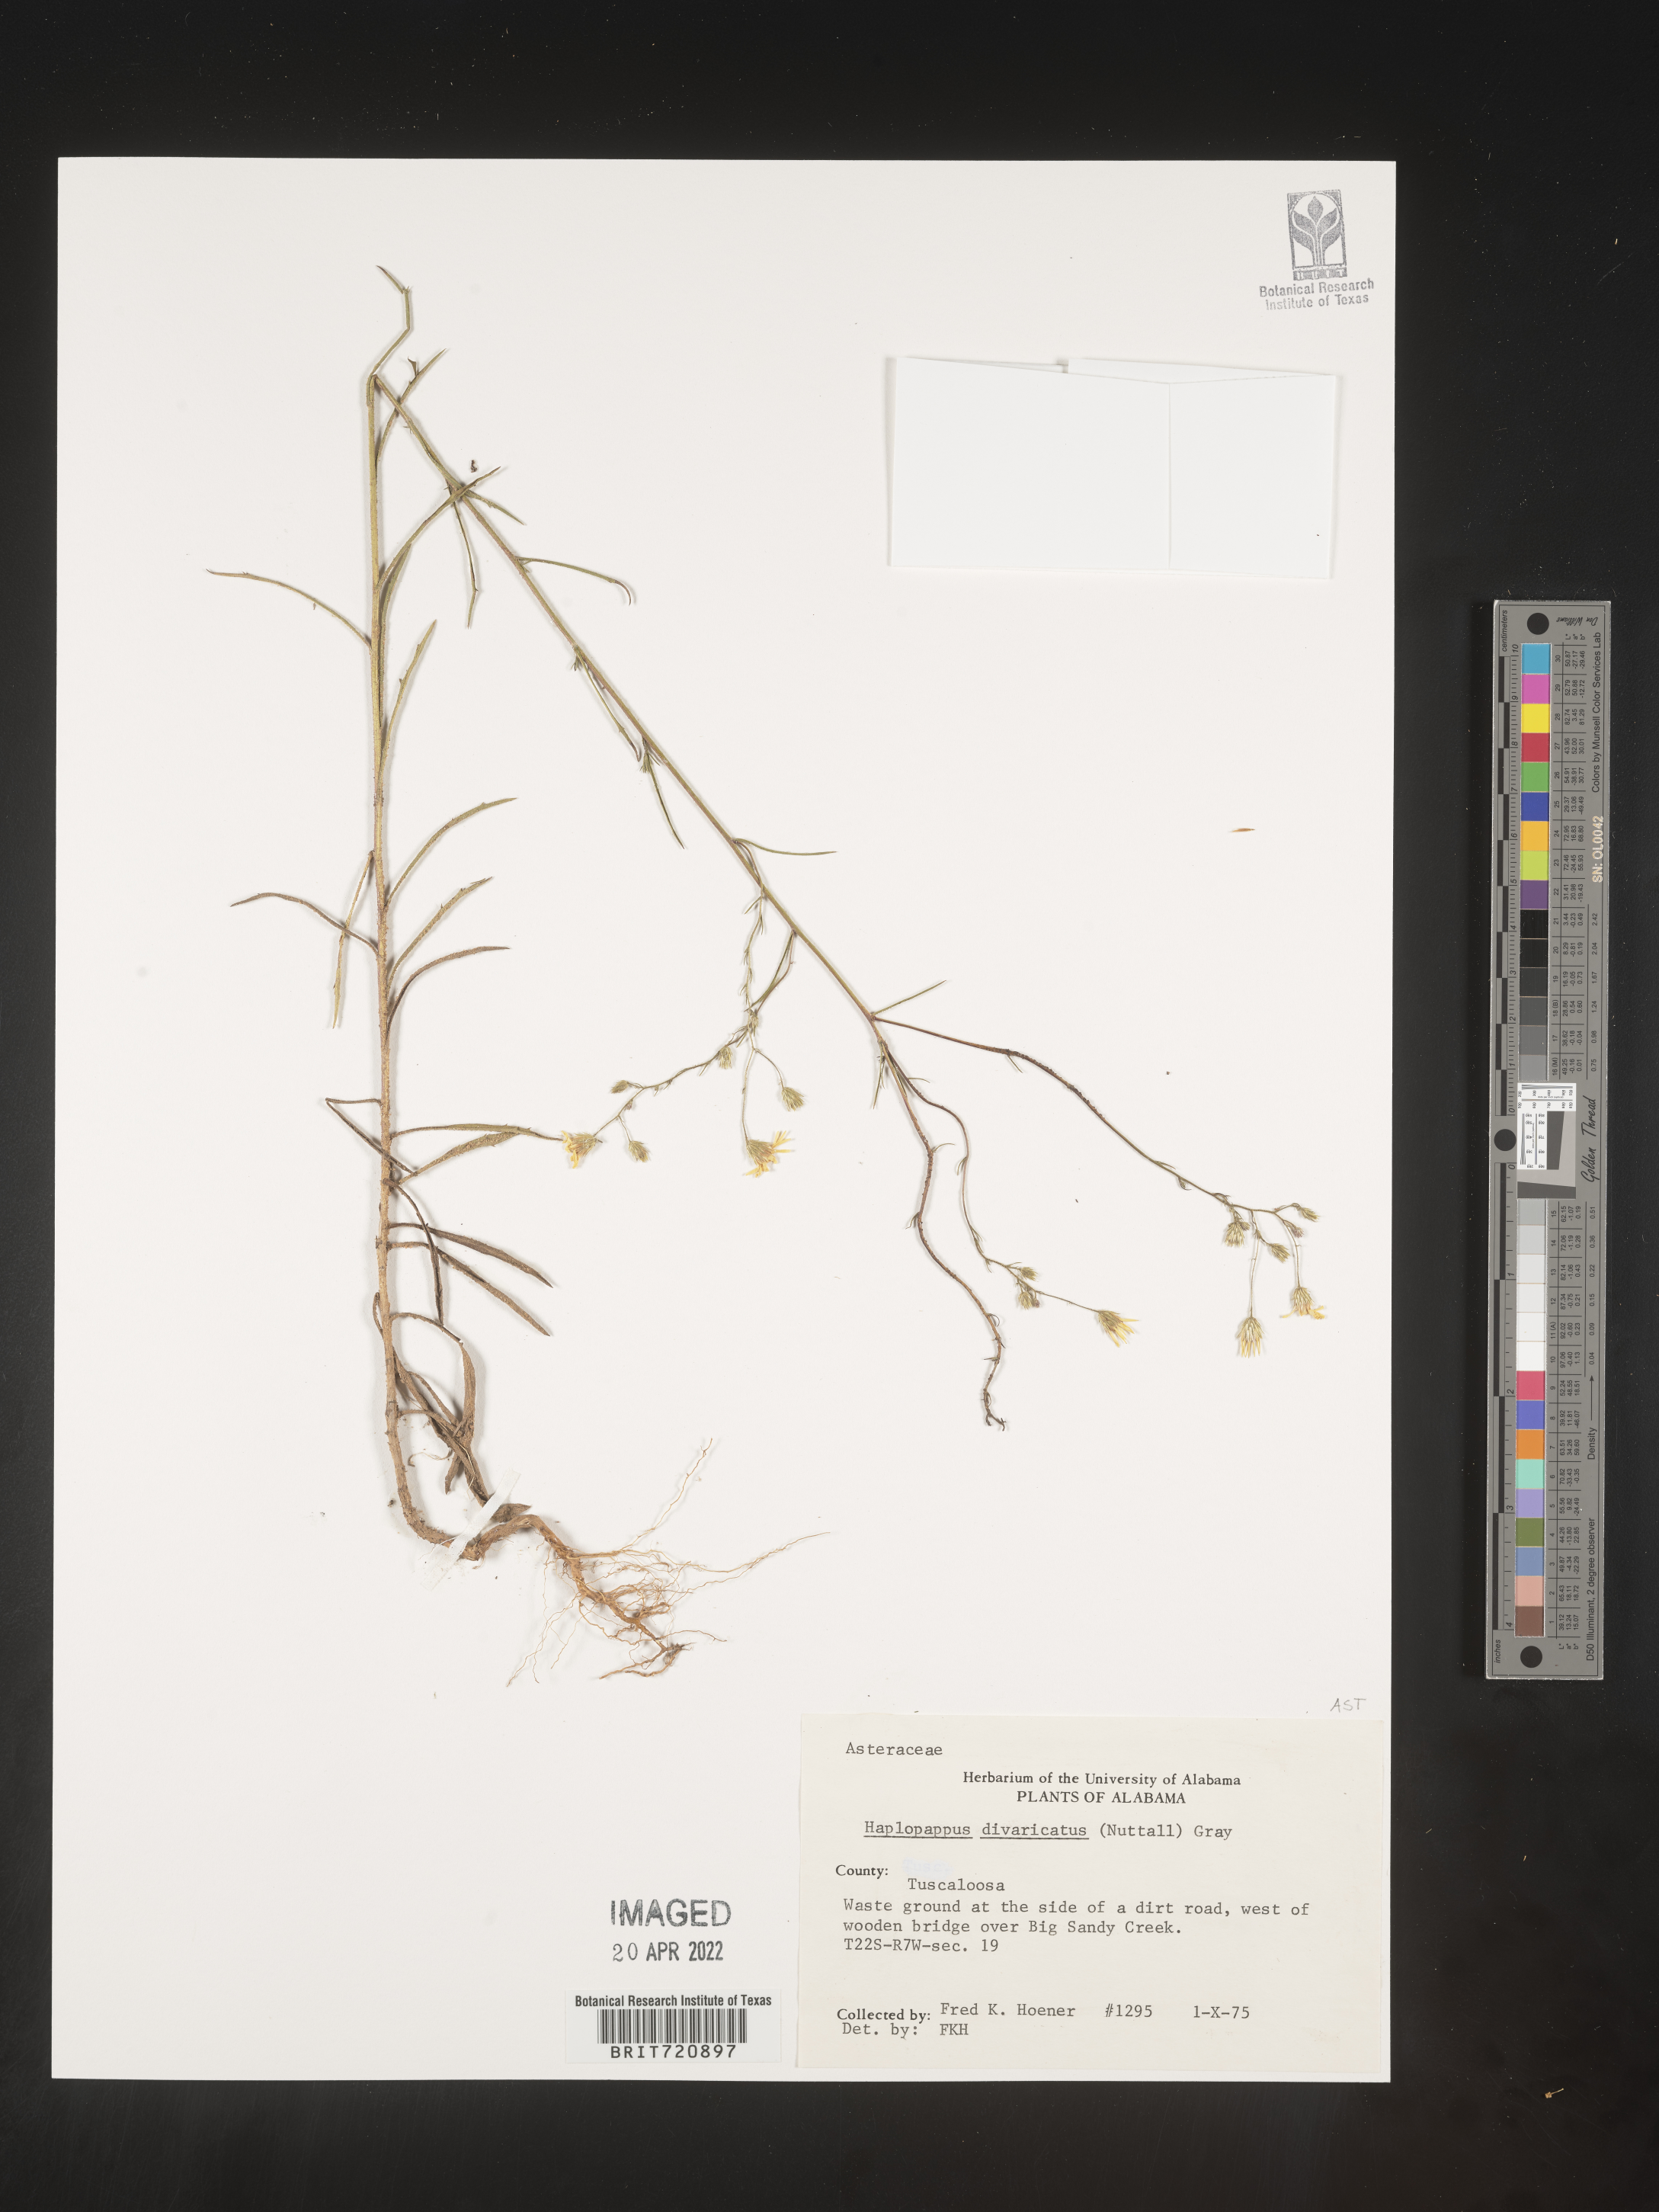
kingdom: Plantae
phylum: Tracheophyta
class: Magnoliopsida
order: Asterales
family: Asteraceae
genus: Haplopappus
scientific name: Haplopappus
